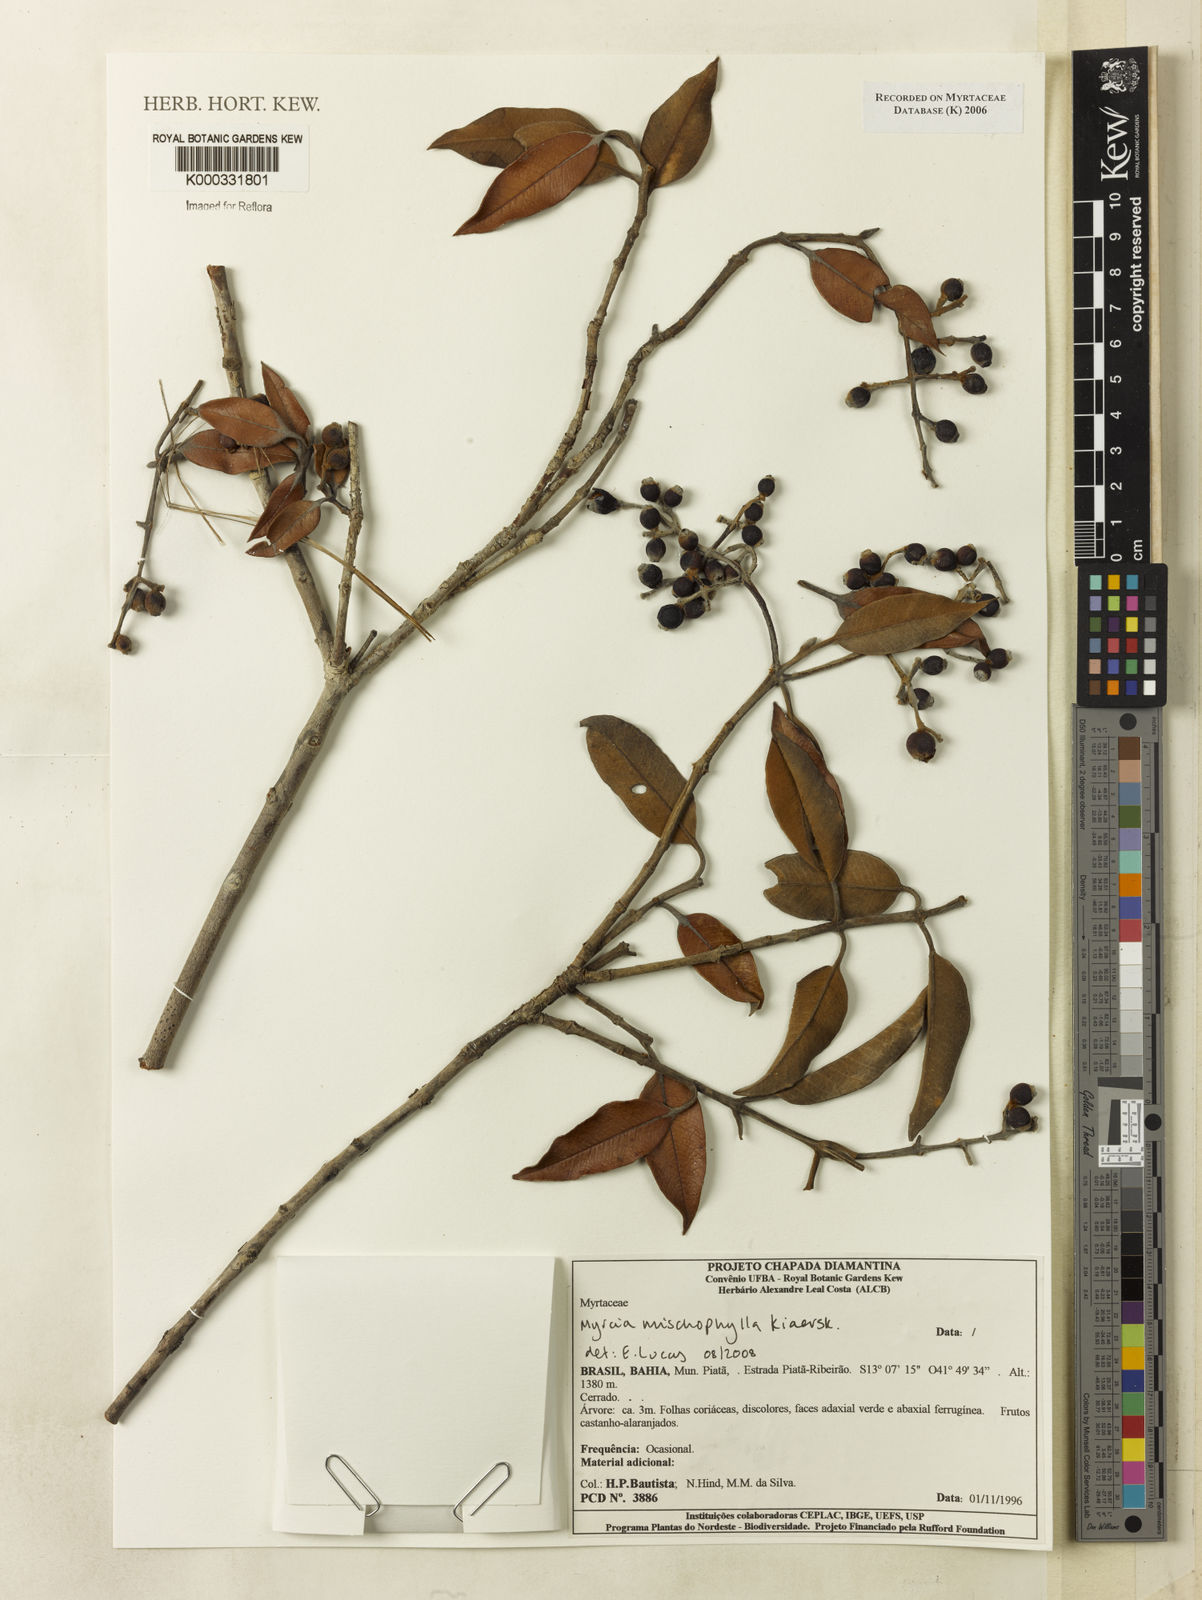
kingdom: Plantae
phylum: Tracheophyta
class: Magnoliopsida
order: Myrtales
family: Myrtaceae
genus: Myrcia
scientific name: Myrcia
